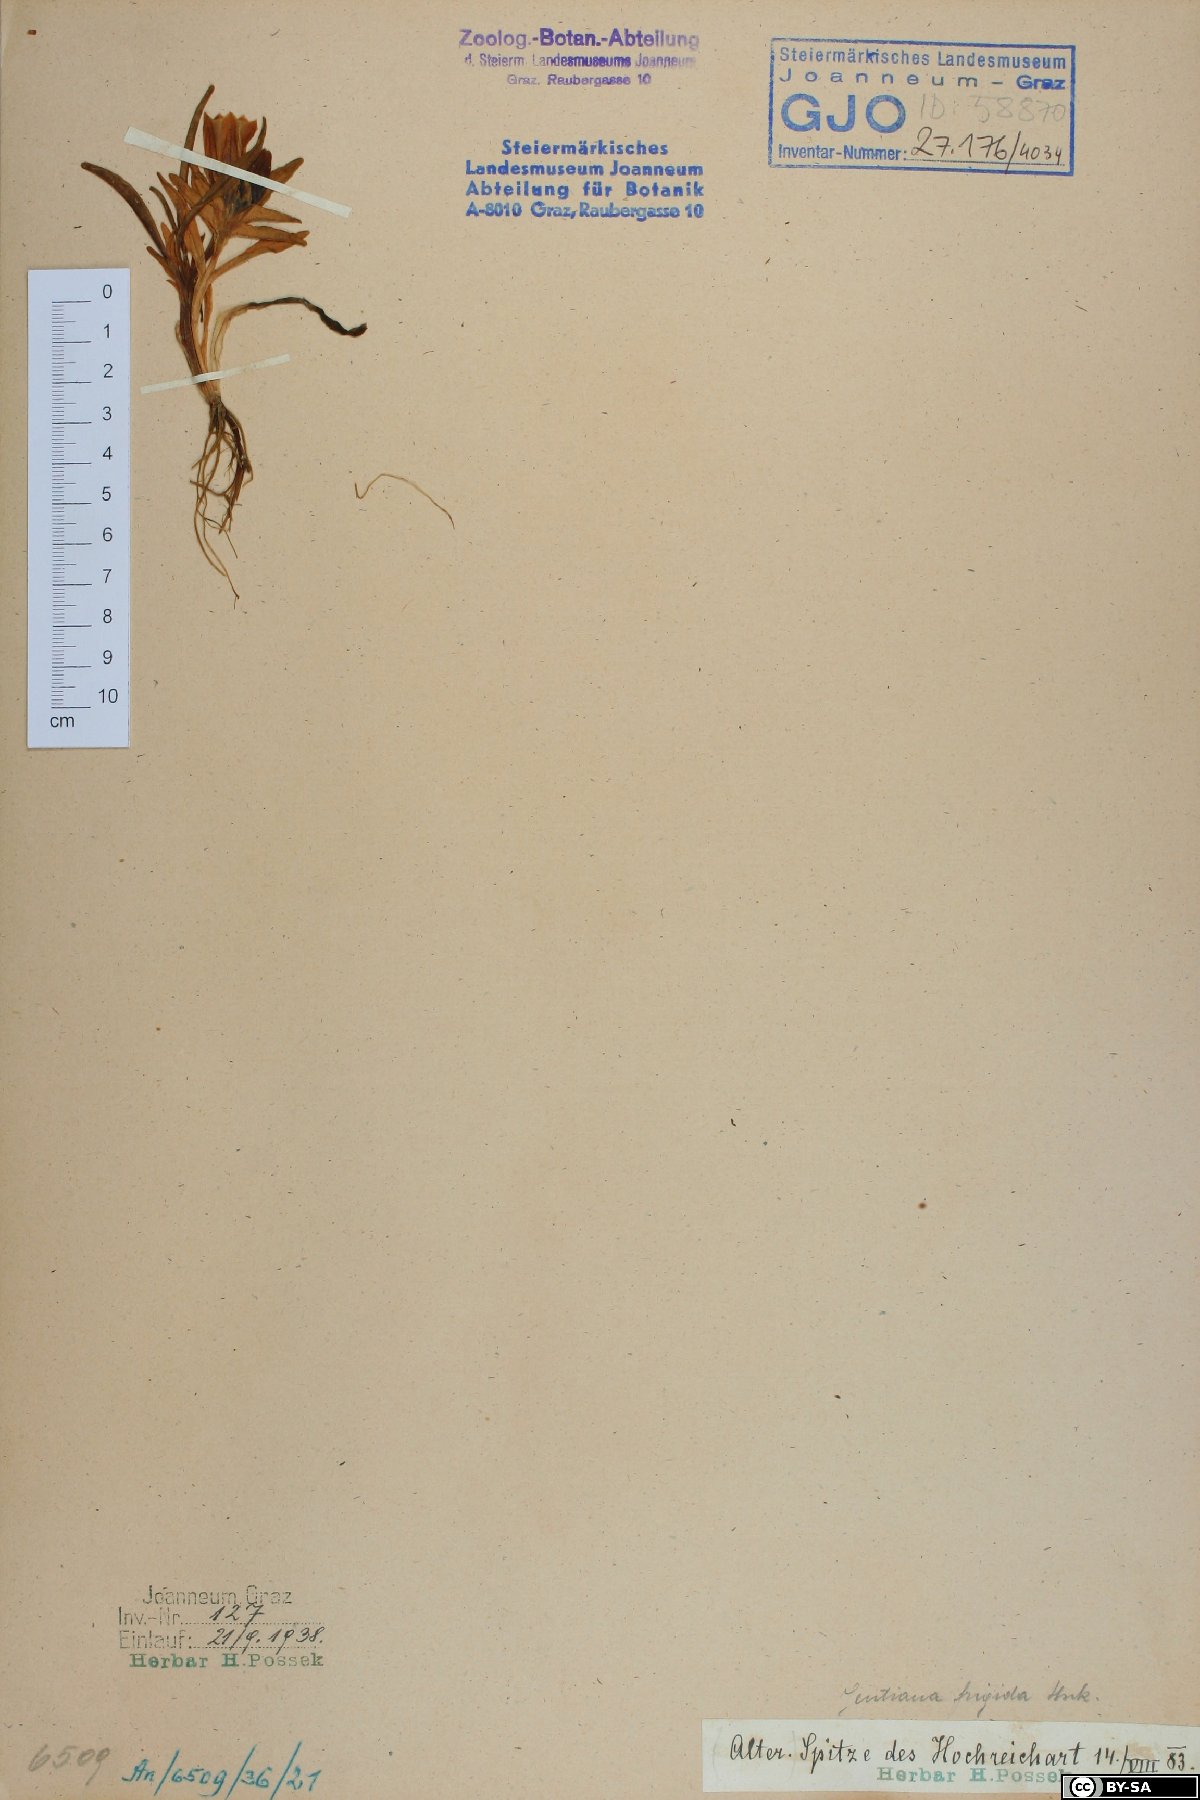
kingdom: Plantae
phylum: Tracheophyta
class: Magnoliopsida
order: Gentianales
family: Gentianaceae
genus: Gentiana
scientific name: Gentiana frigida
